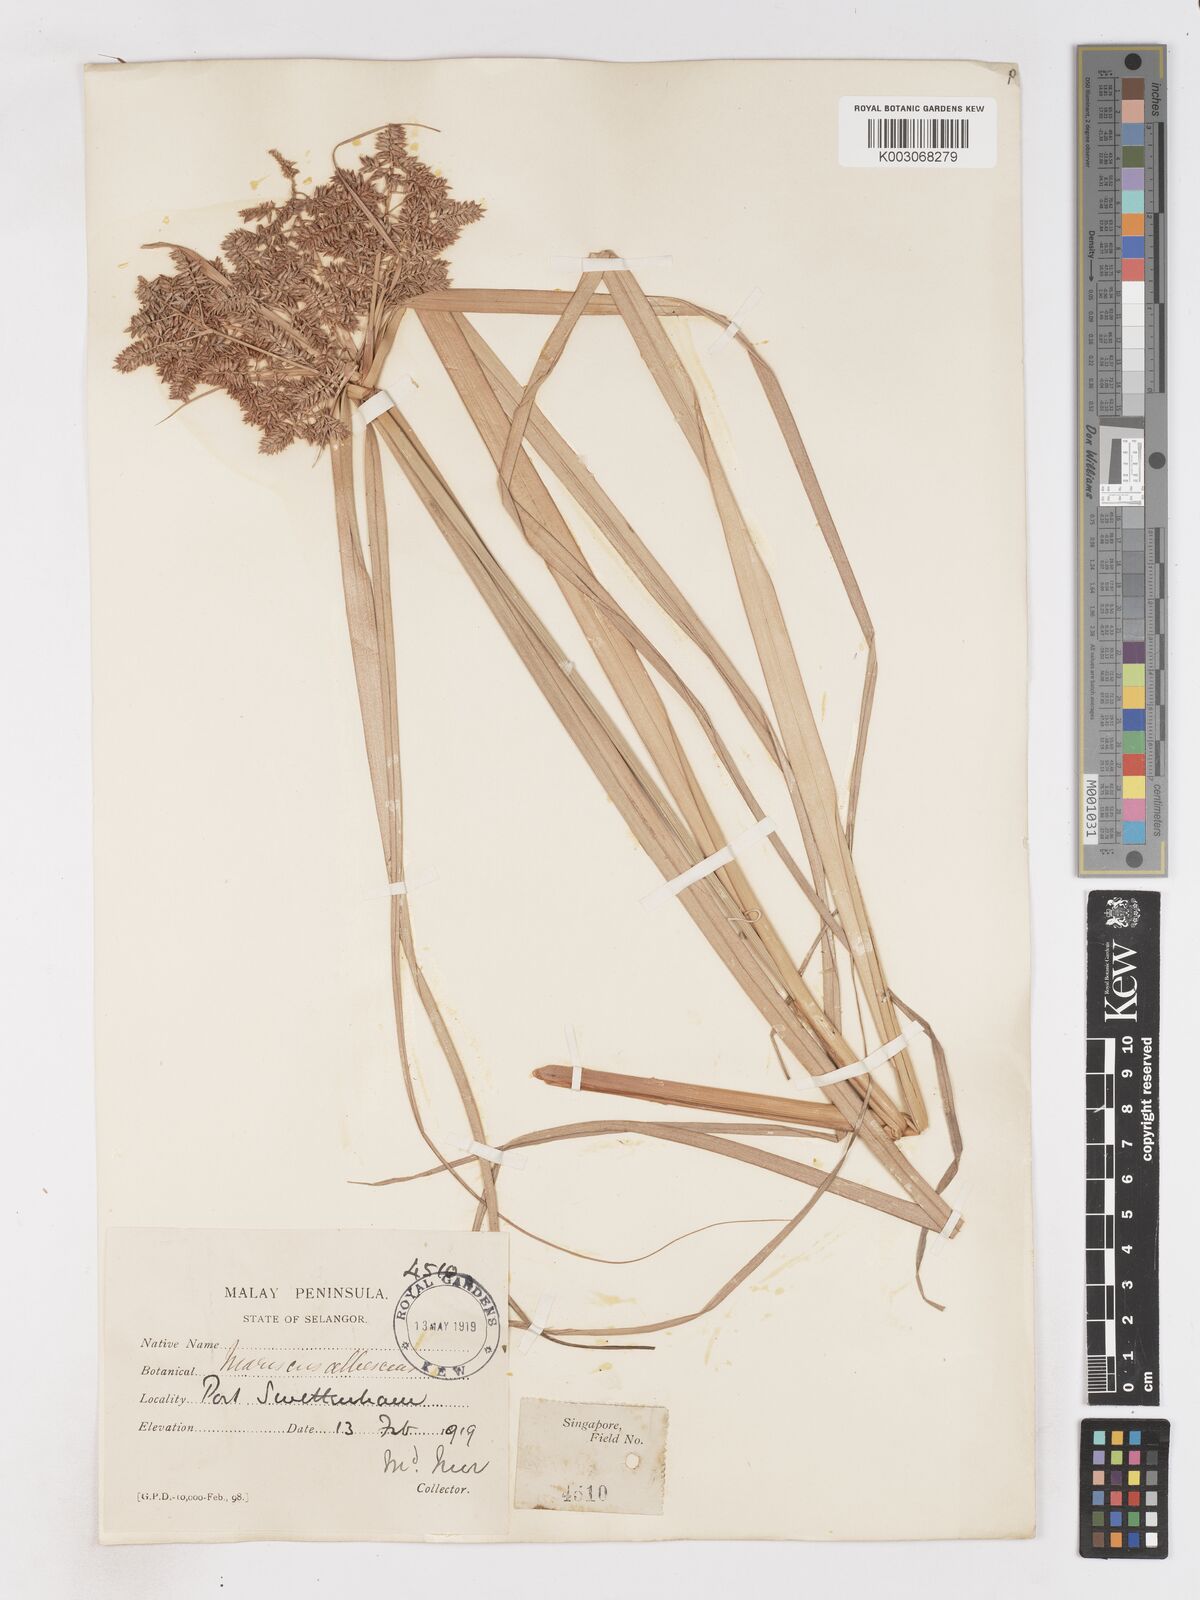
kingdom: Plantae
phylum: Tracheophyta
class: Liliopsida
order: Poales
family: Cyperaceae
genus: Cyperus
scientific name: Cyperus javanicus
